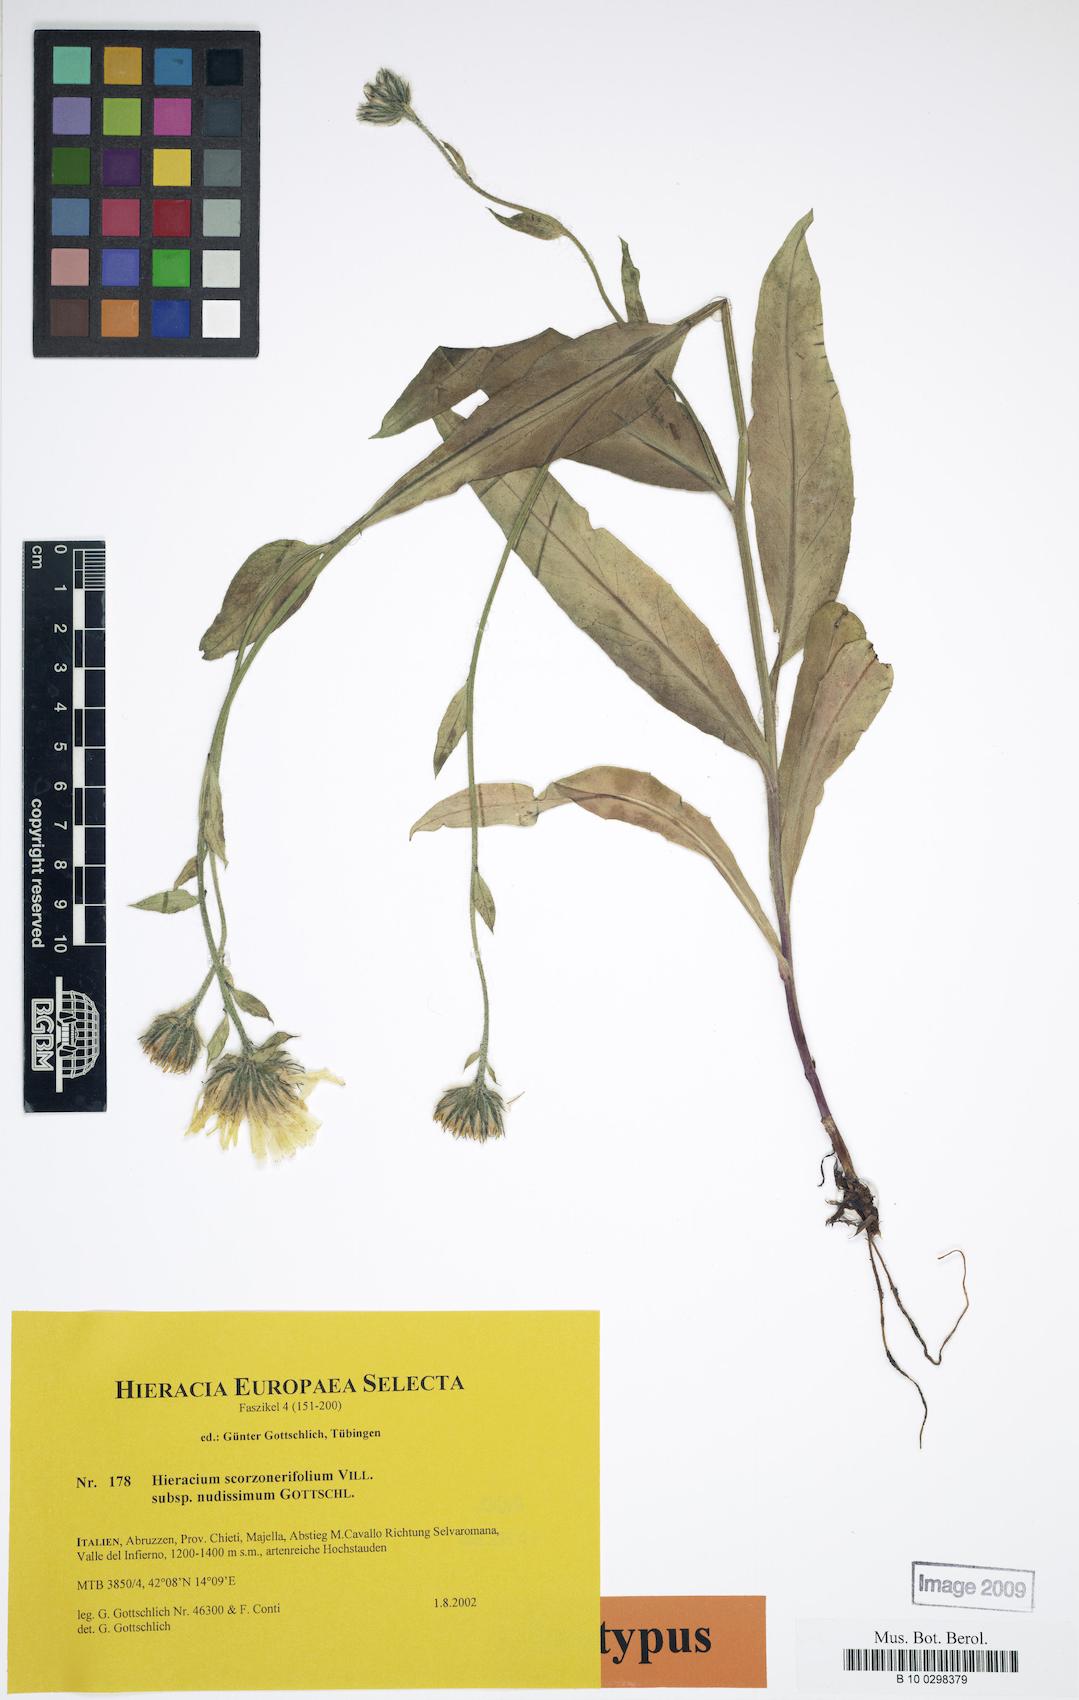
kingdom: Plantae
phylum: Tracheophyta
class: Magnoliopsida
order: Asterales
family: Asteraceae
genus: Hieracium
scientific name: Hieracium scorzonerifolium
